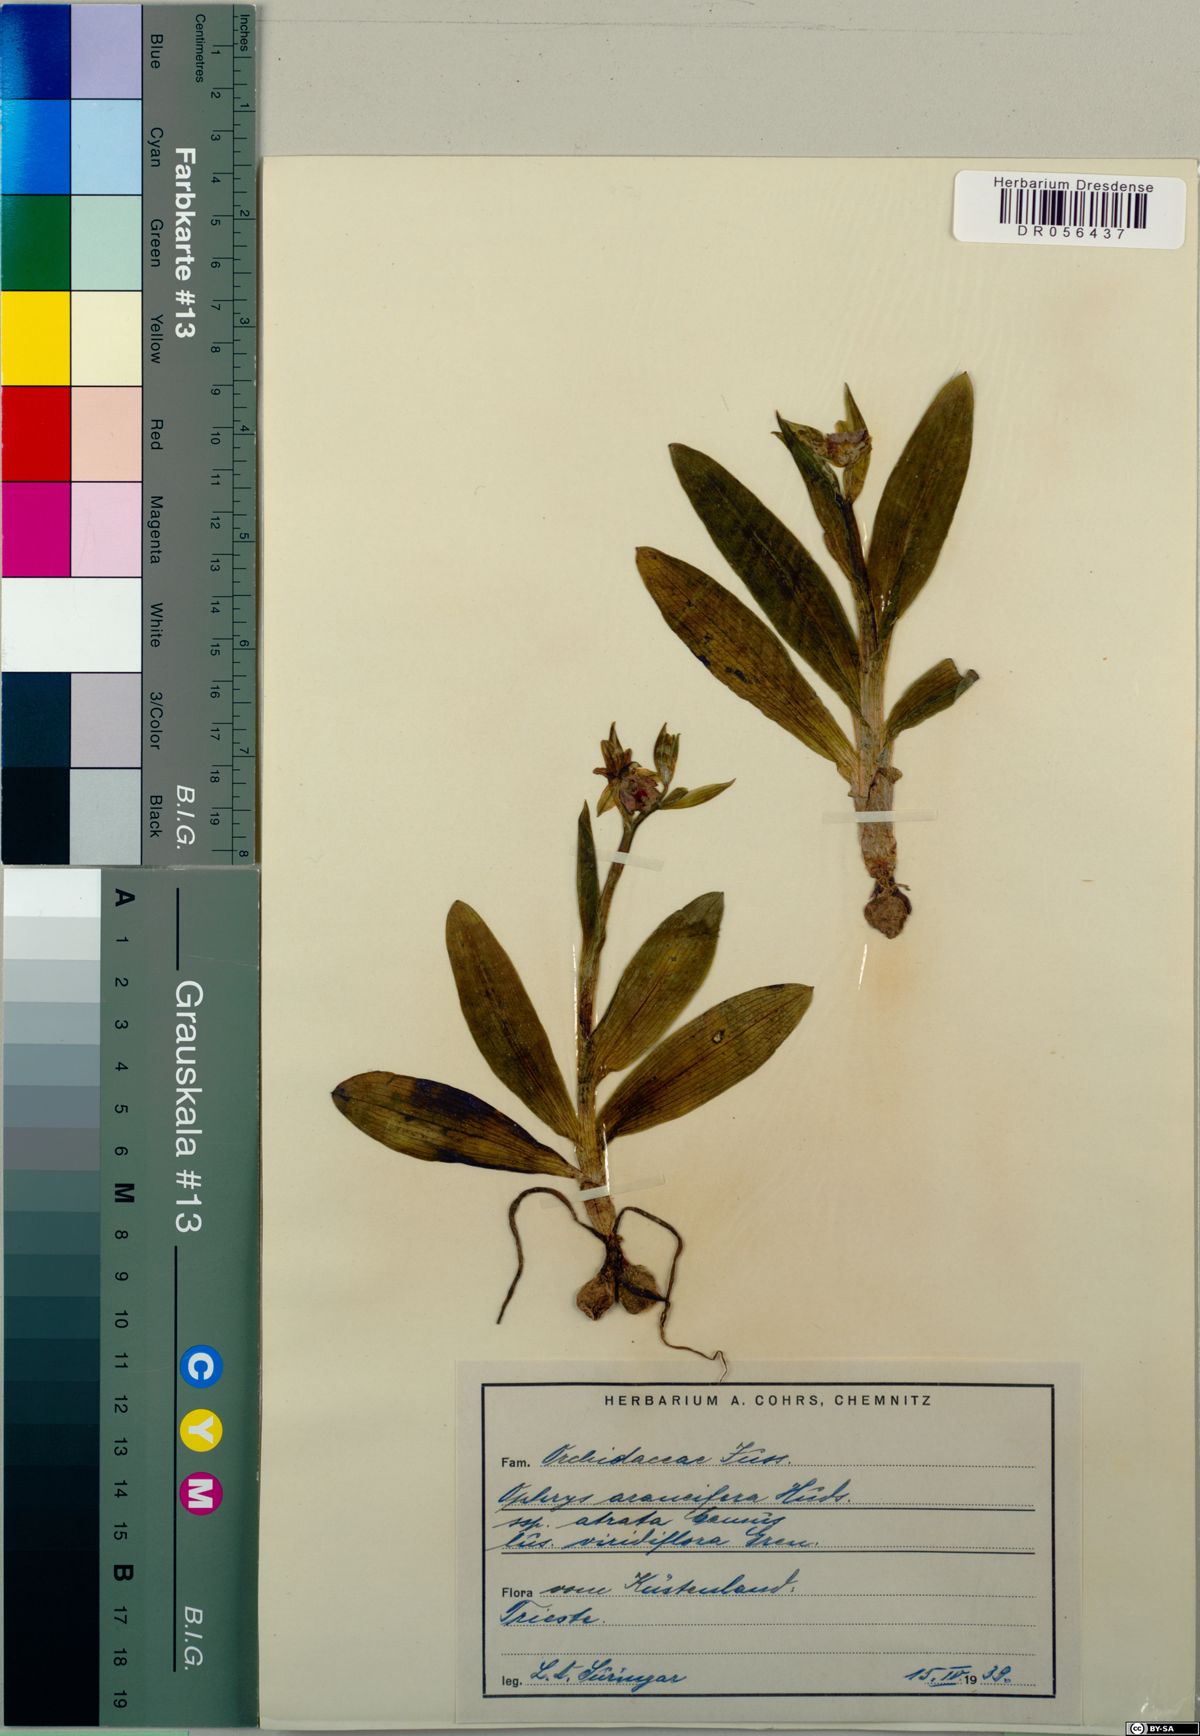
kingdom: Plantae
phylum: Tracheophyta
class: Liliopsida
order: Asparagales
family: Orchidaceae
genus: Ophrys
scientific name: Ophrys sphegodes
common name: Early spider-orchid
